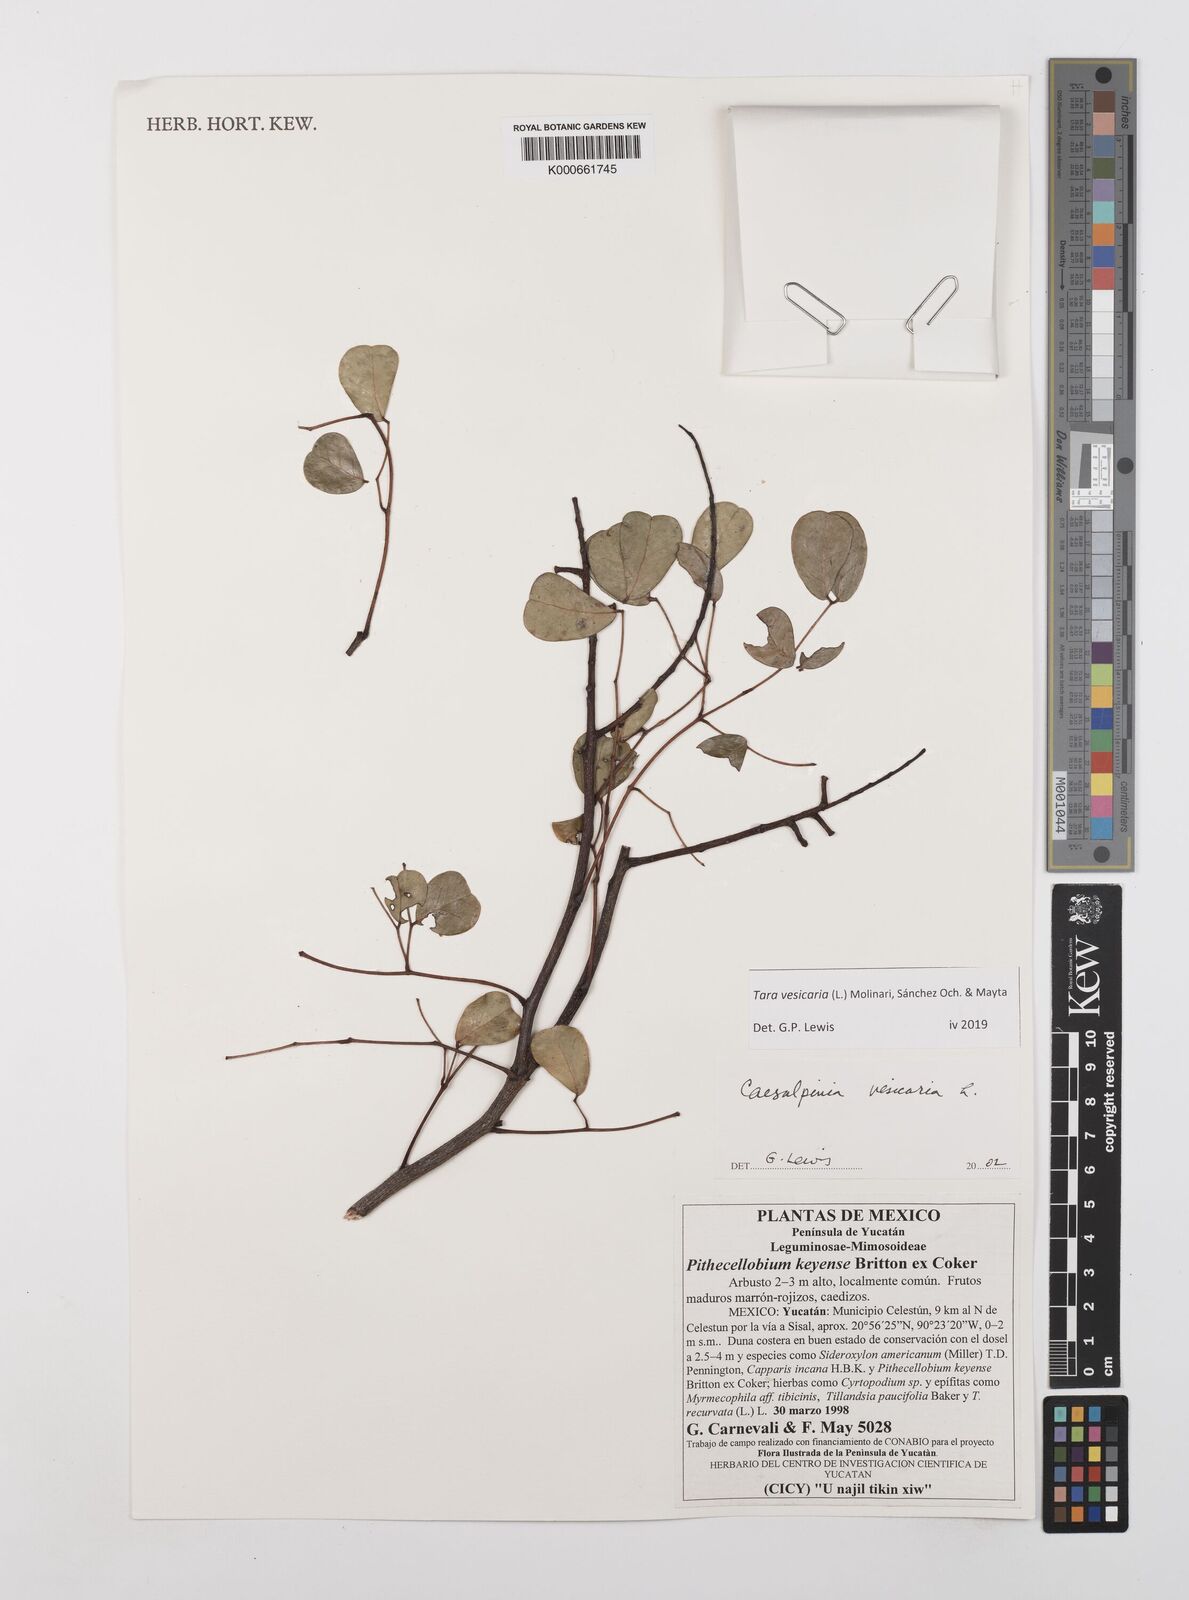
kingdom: Plantae
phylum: Tracheophyta
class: Magnoliopsida
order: Fabales
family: Fabaceae
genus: Tara
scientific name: Tara vesicaria
